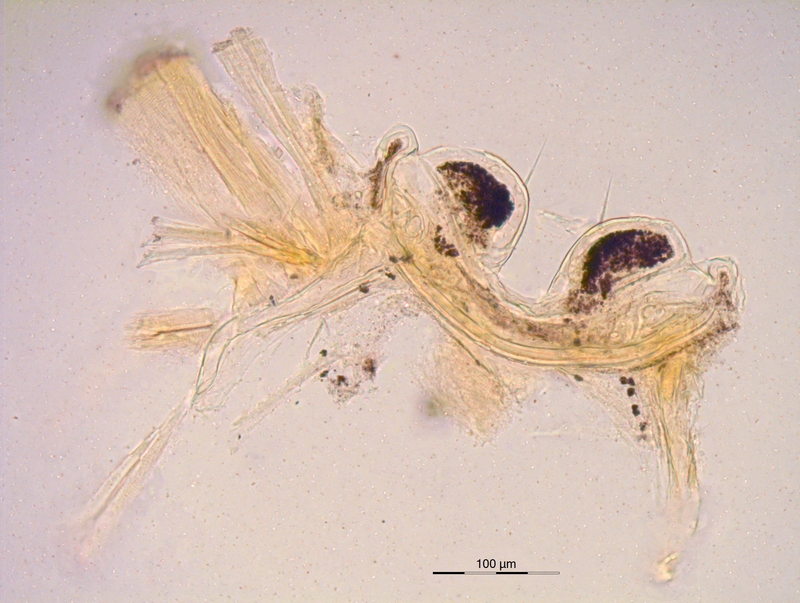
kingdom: Animalia
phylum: Arthropoda
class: Diplopoda
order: Chordeumatida
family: Craspedosomatidae
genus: Rothenbuehleria
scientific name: Rothenbuehleria tirolense
